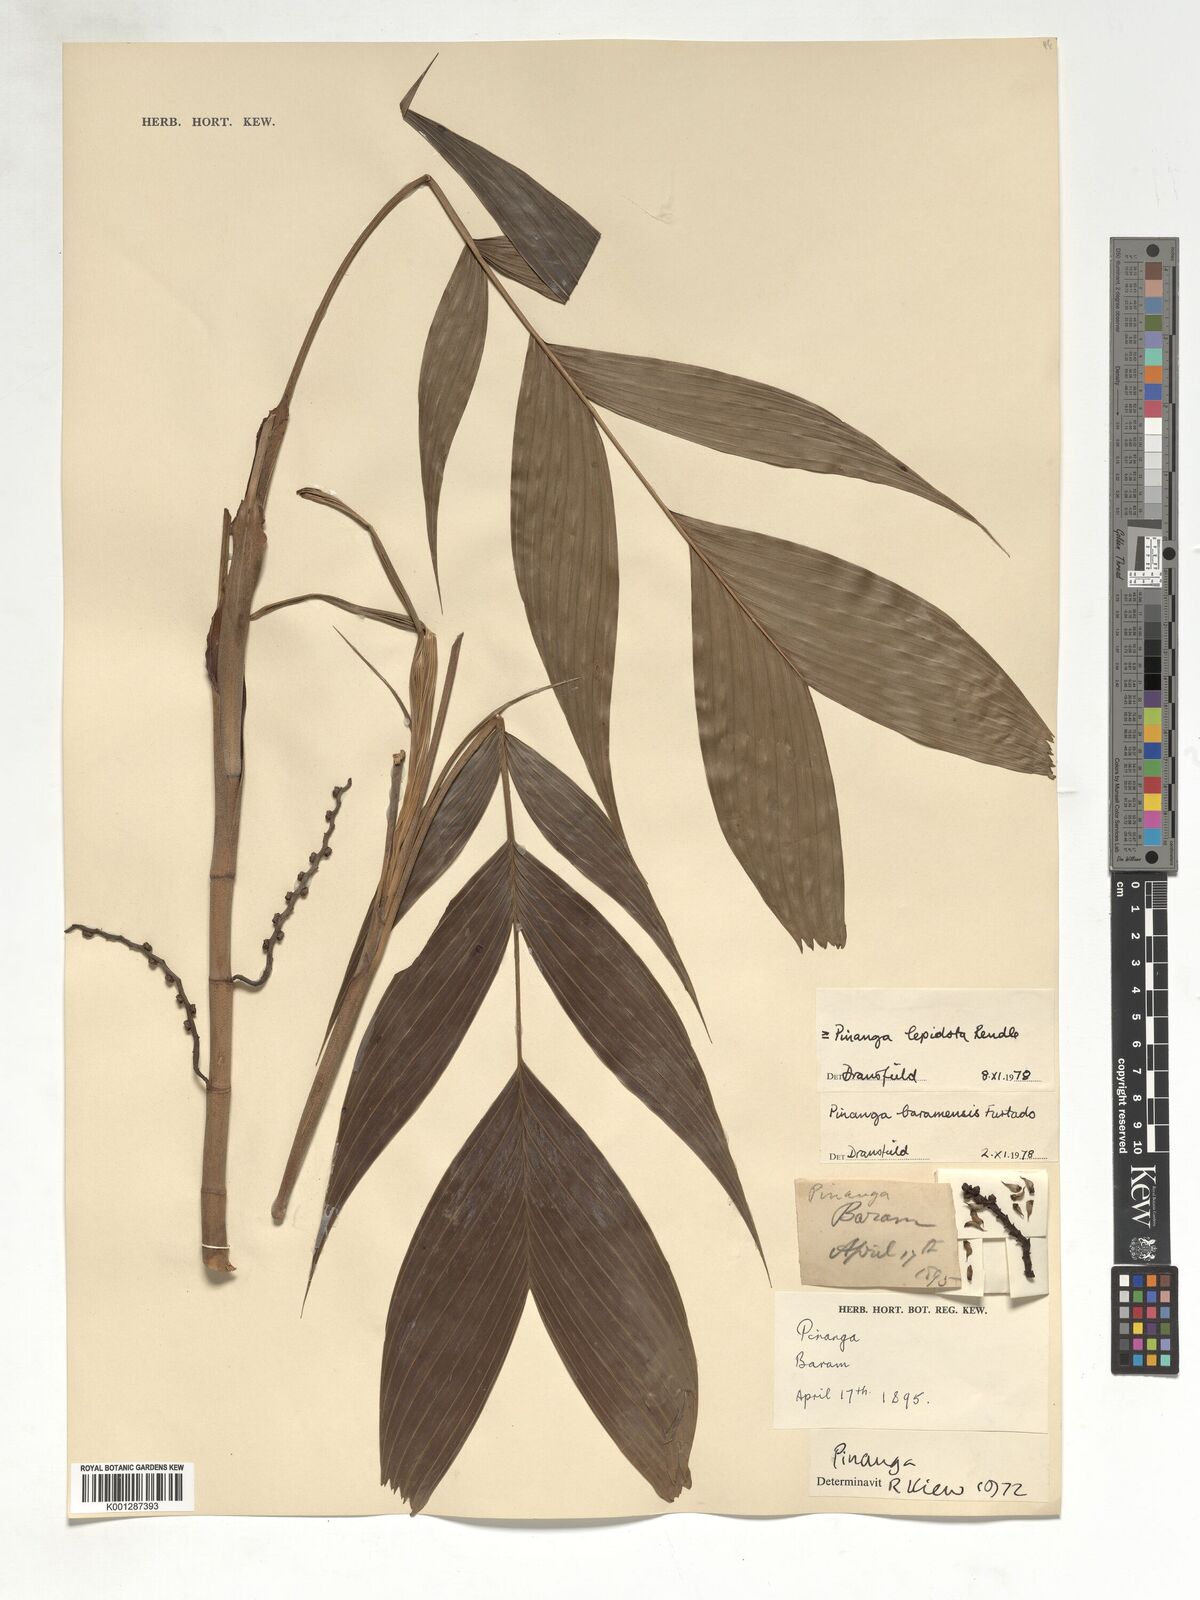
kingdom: Plantae
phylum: Tracheophyta
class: Liliopsida
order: Arecales
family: Arecaceae
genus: Pinanga
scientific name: Pinanga lepidota
